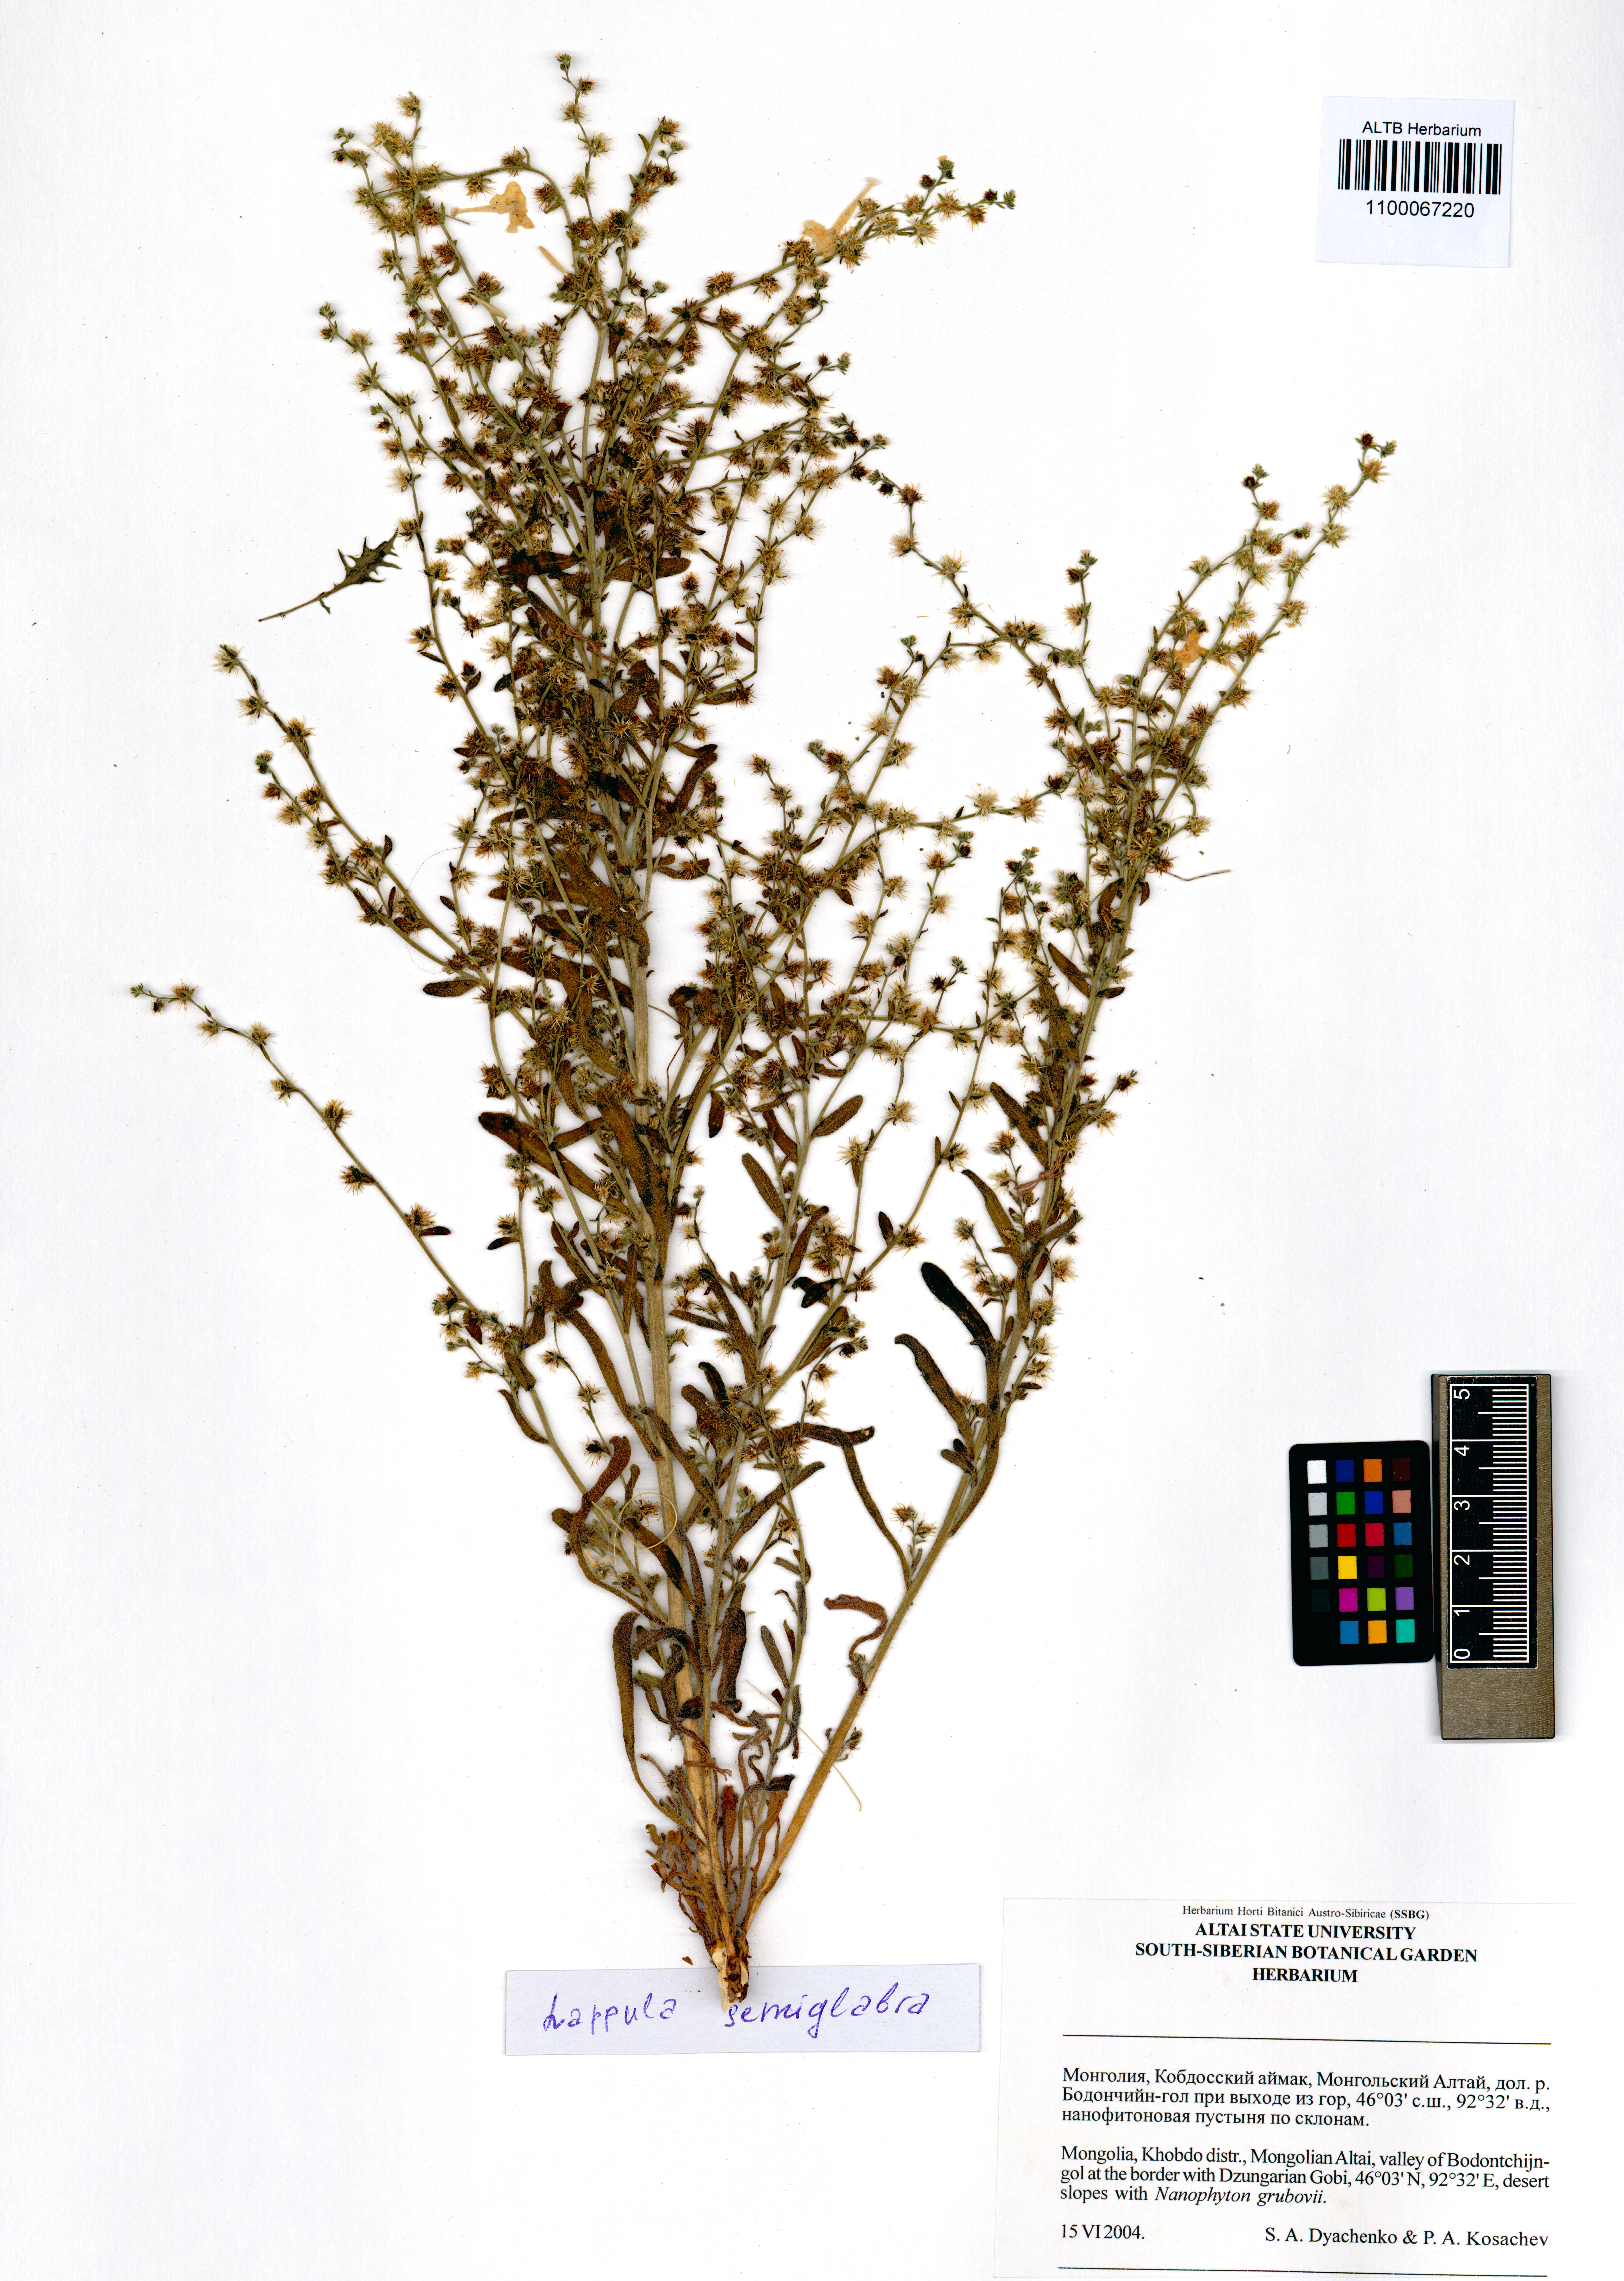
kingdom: Plantae
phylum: Tracheophyta
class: Magnoliopsida
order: Boraginales
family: Boraginaceae
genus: Lappula
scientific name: Lappula patula
